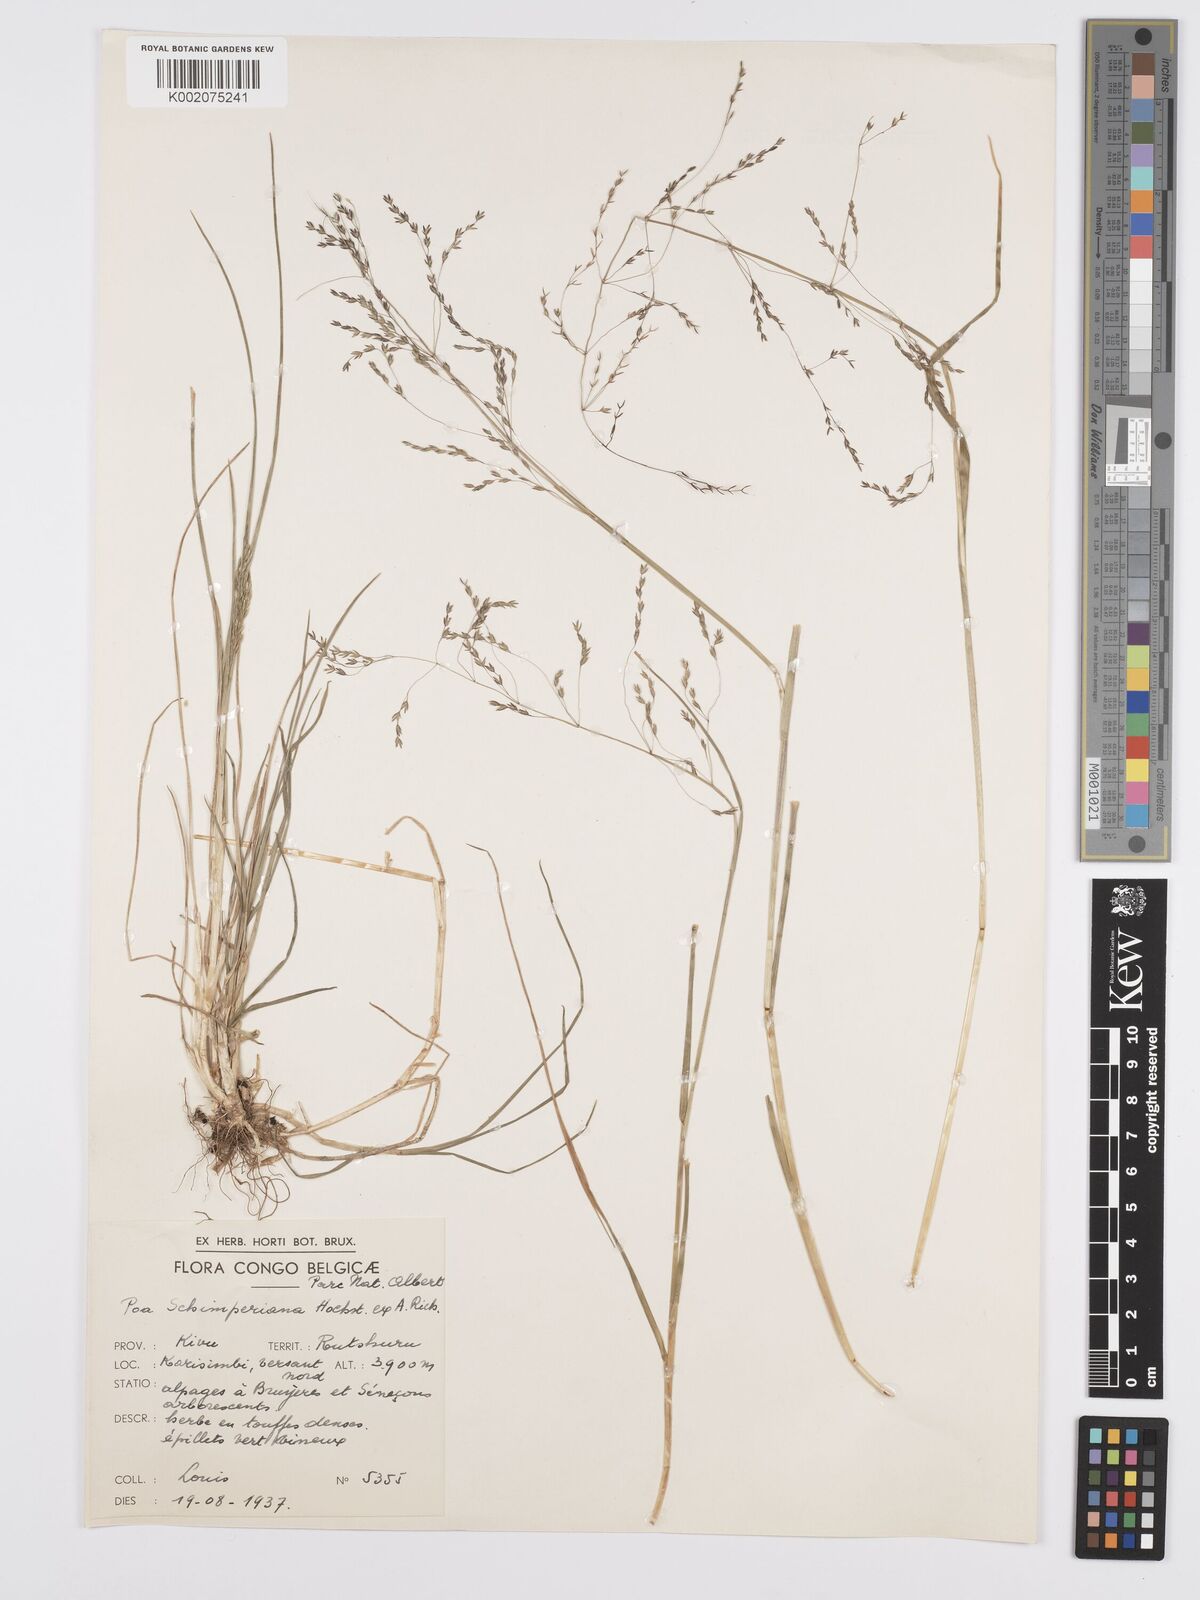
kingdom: Plantae
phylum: Tracheophyta
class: Liliopsida
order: Poales
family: Poaceae
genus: Poa
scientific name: Poa schimperiana
